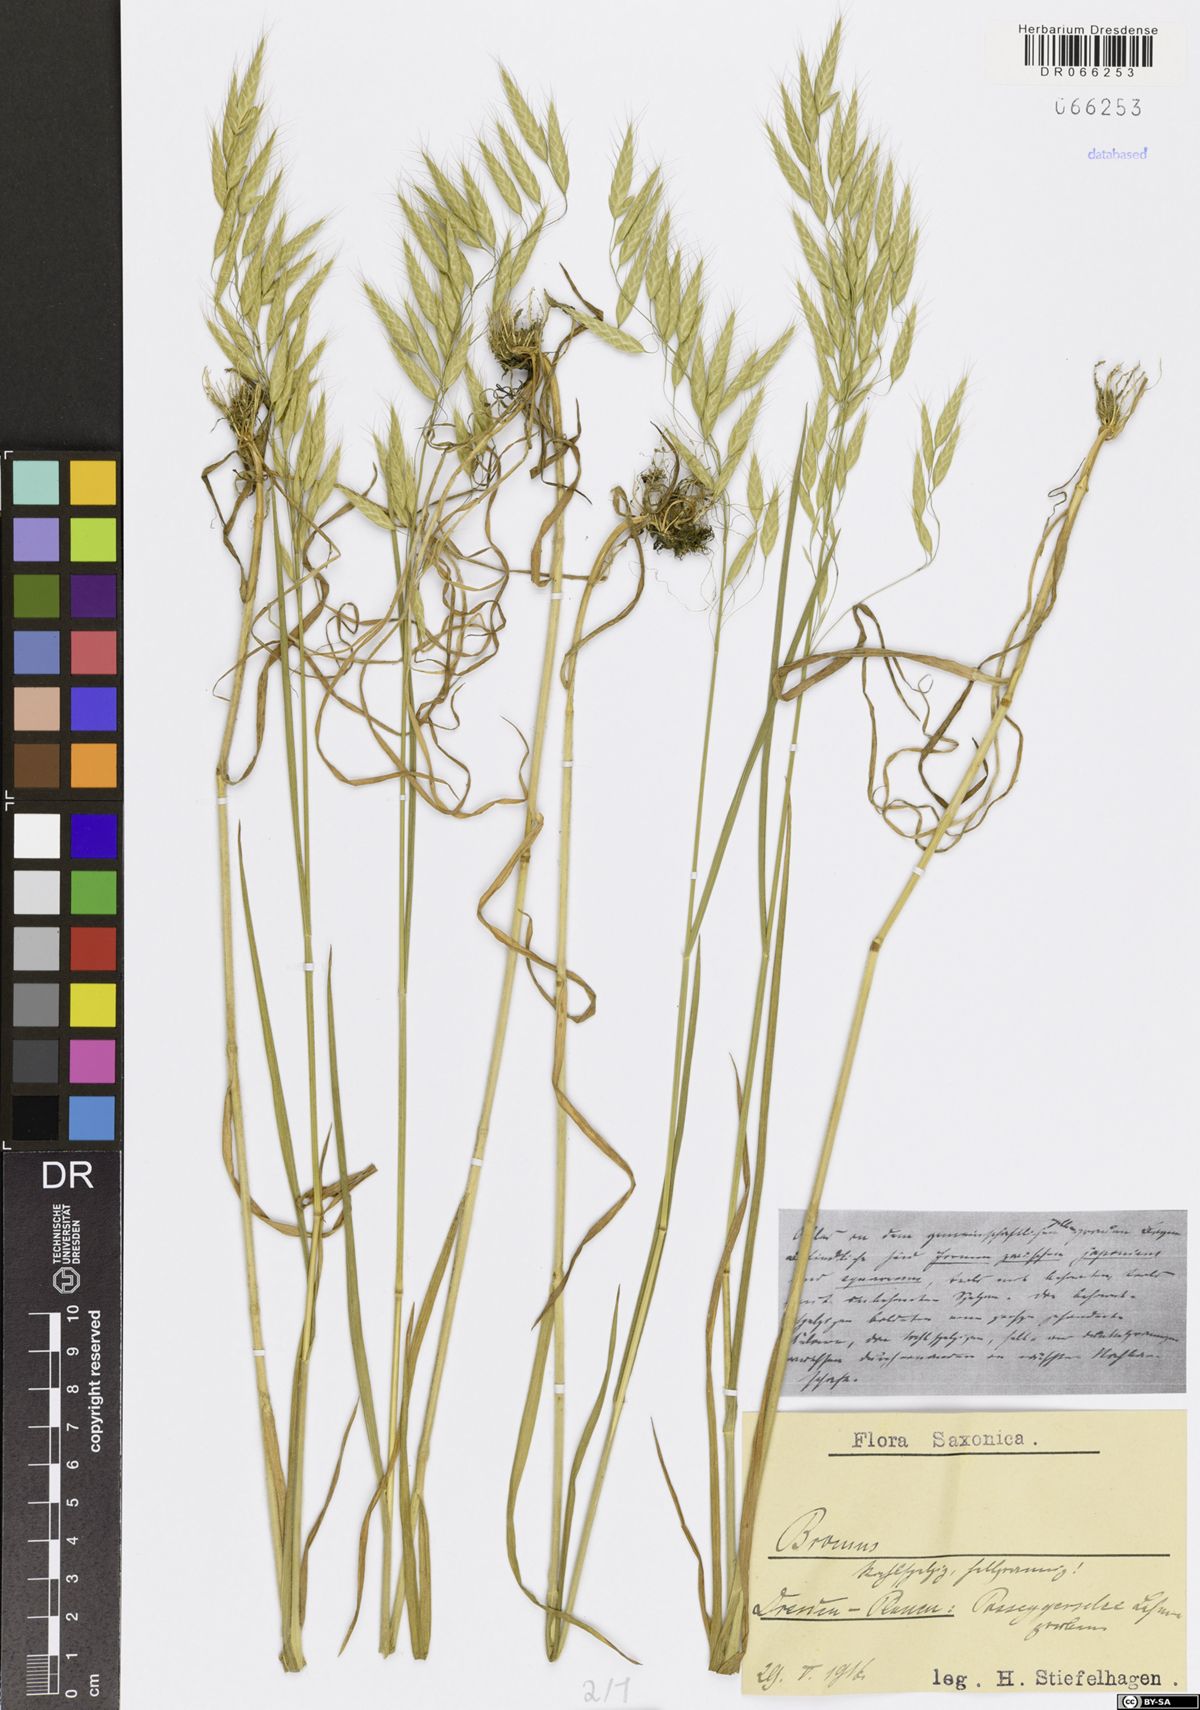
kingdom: Plantae
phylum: Tracheophyta
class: Liliopsida
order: Poales
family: Poaceae
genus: Bromus
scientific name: Bromus
